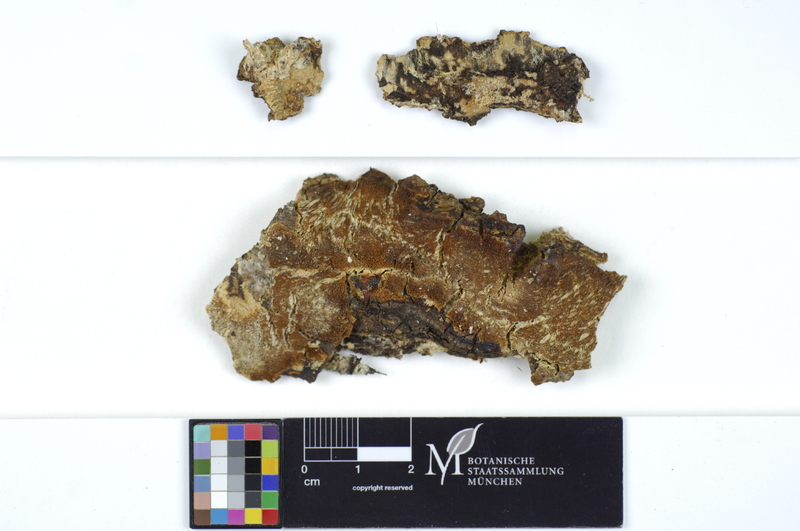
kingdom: Fungi
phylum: Basidiomycota
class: Agaricomycetes
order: Polyporales
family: Irpicaceae
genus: Resiniporus
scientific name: Resiniporus resinascens
